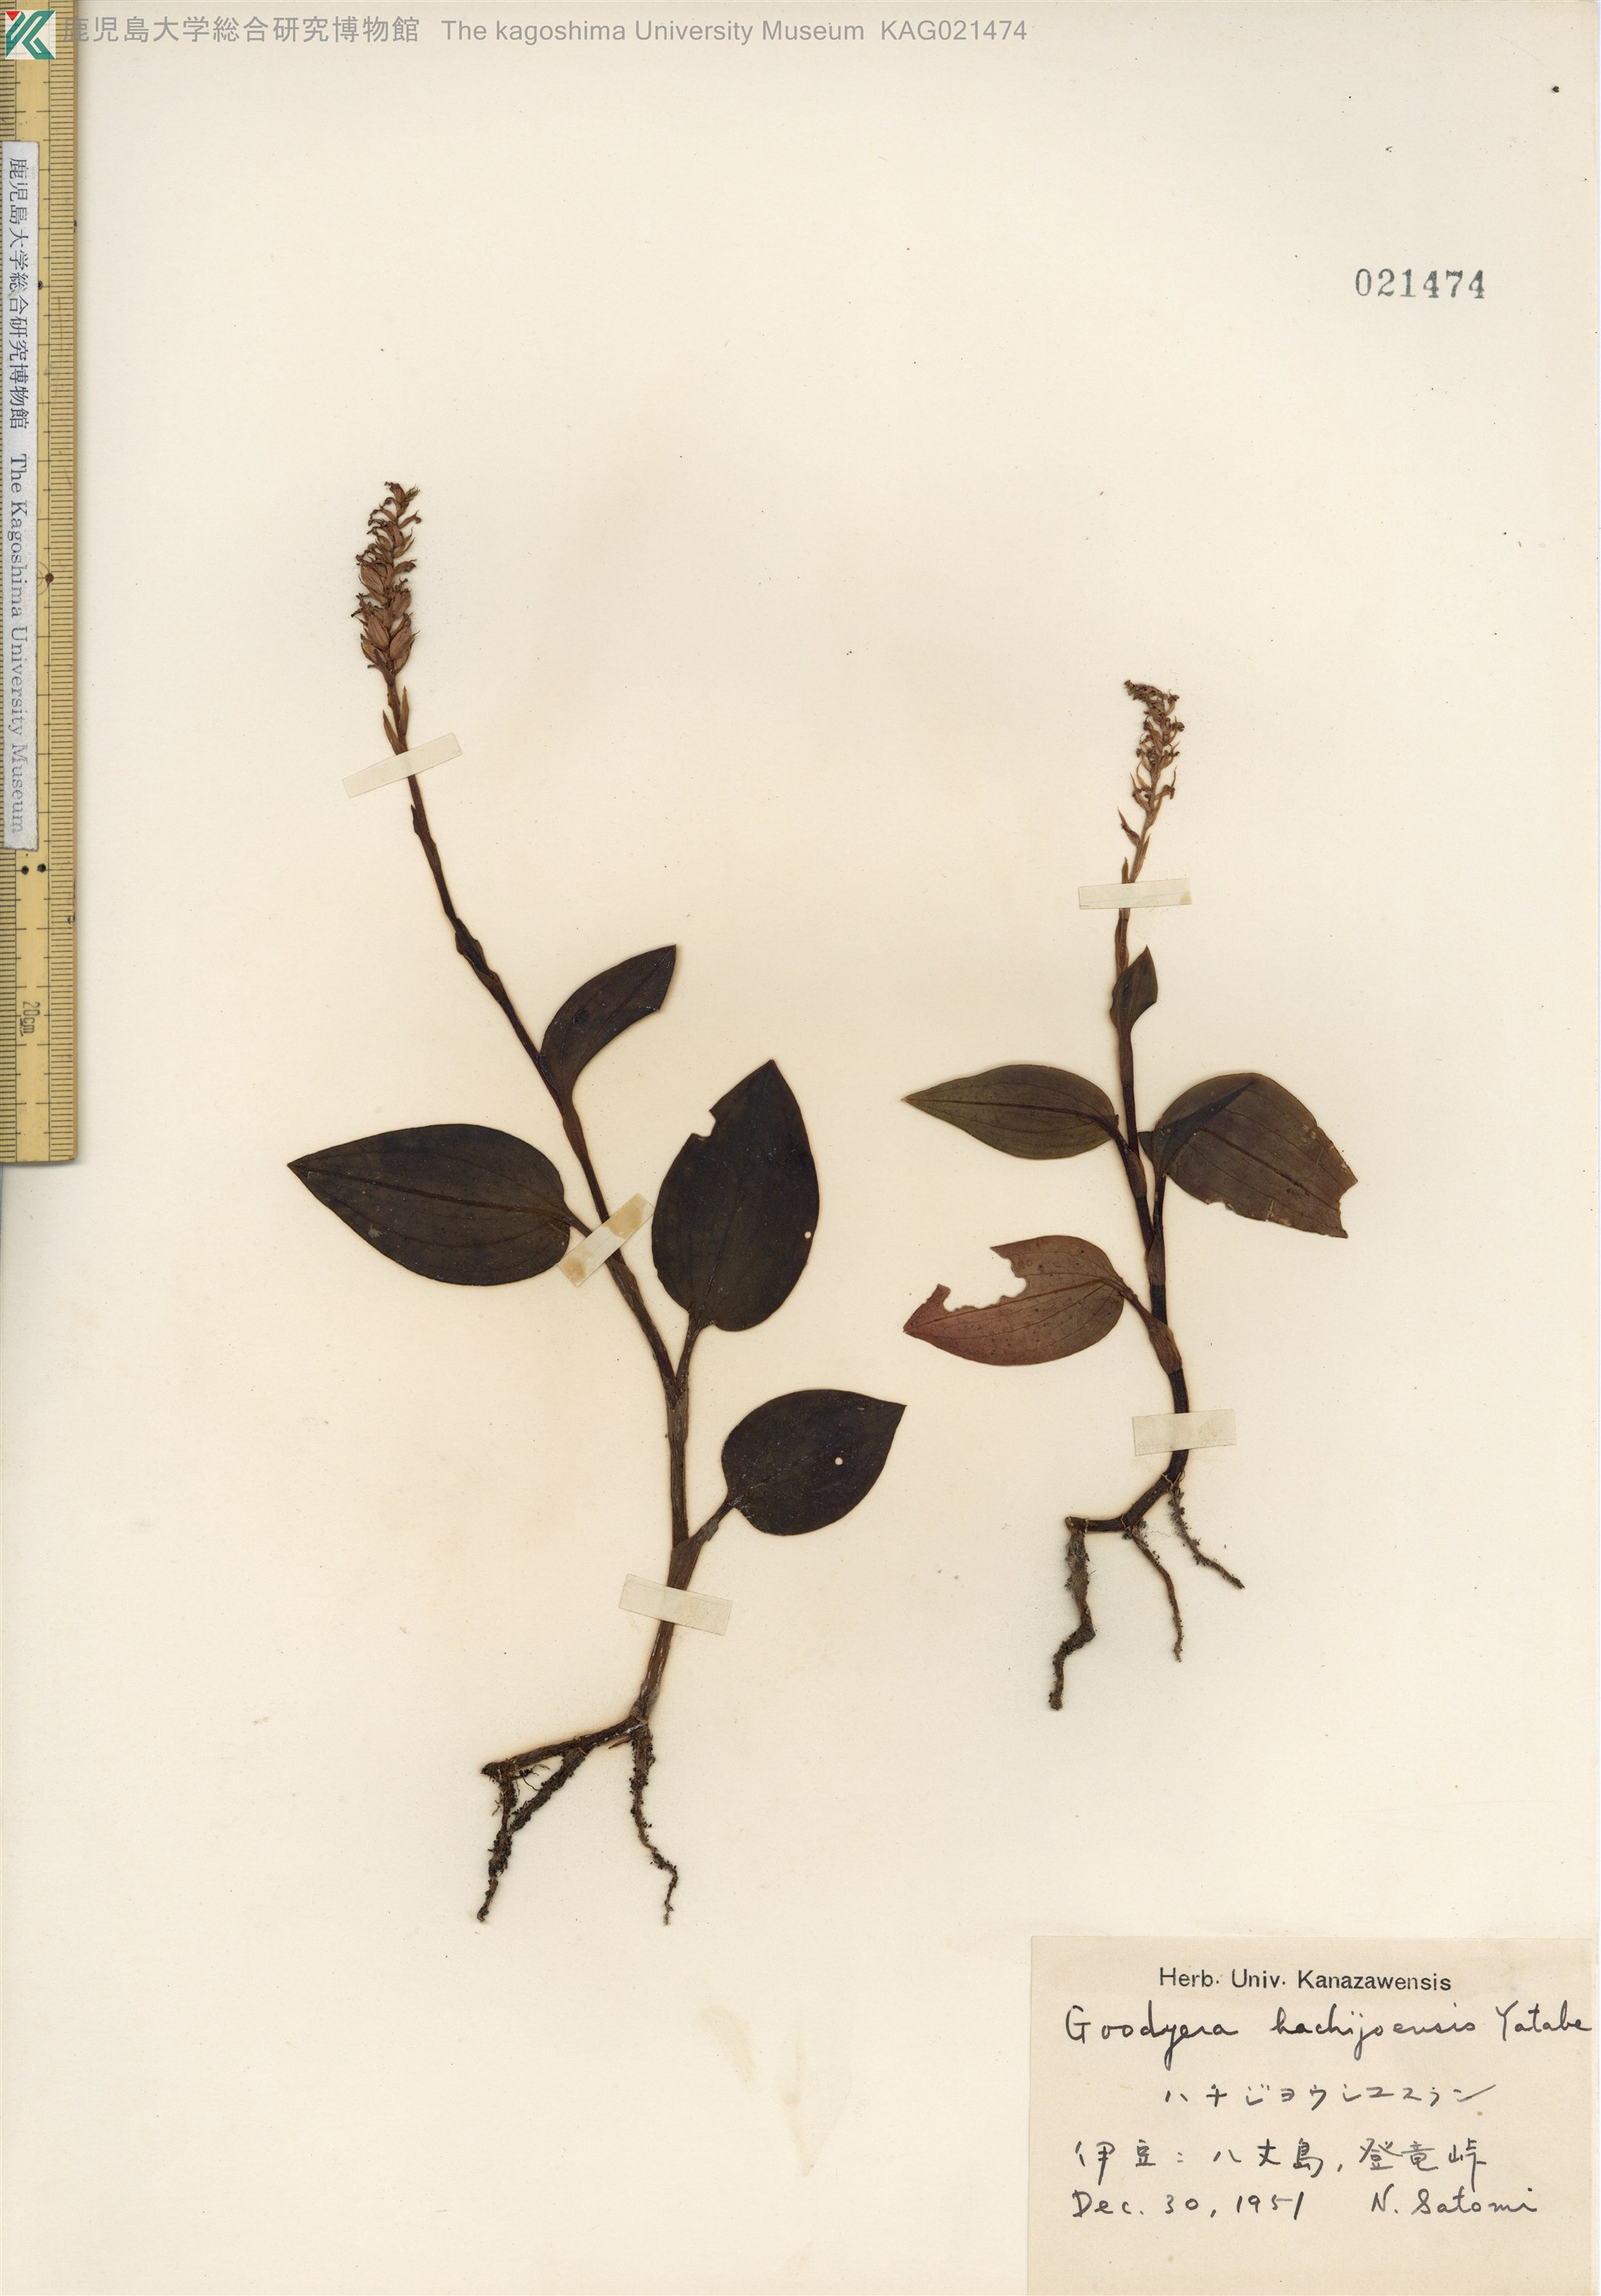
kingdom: Plantae
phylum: Tracheophyta
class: Liliopsida
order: Asparagales
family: Orchidaceae
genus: Goodyera
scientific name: Goodyera hachijoensis
